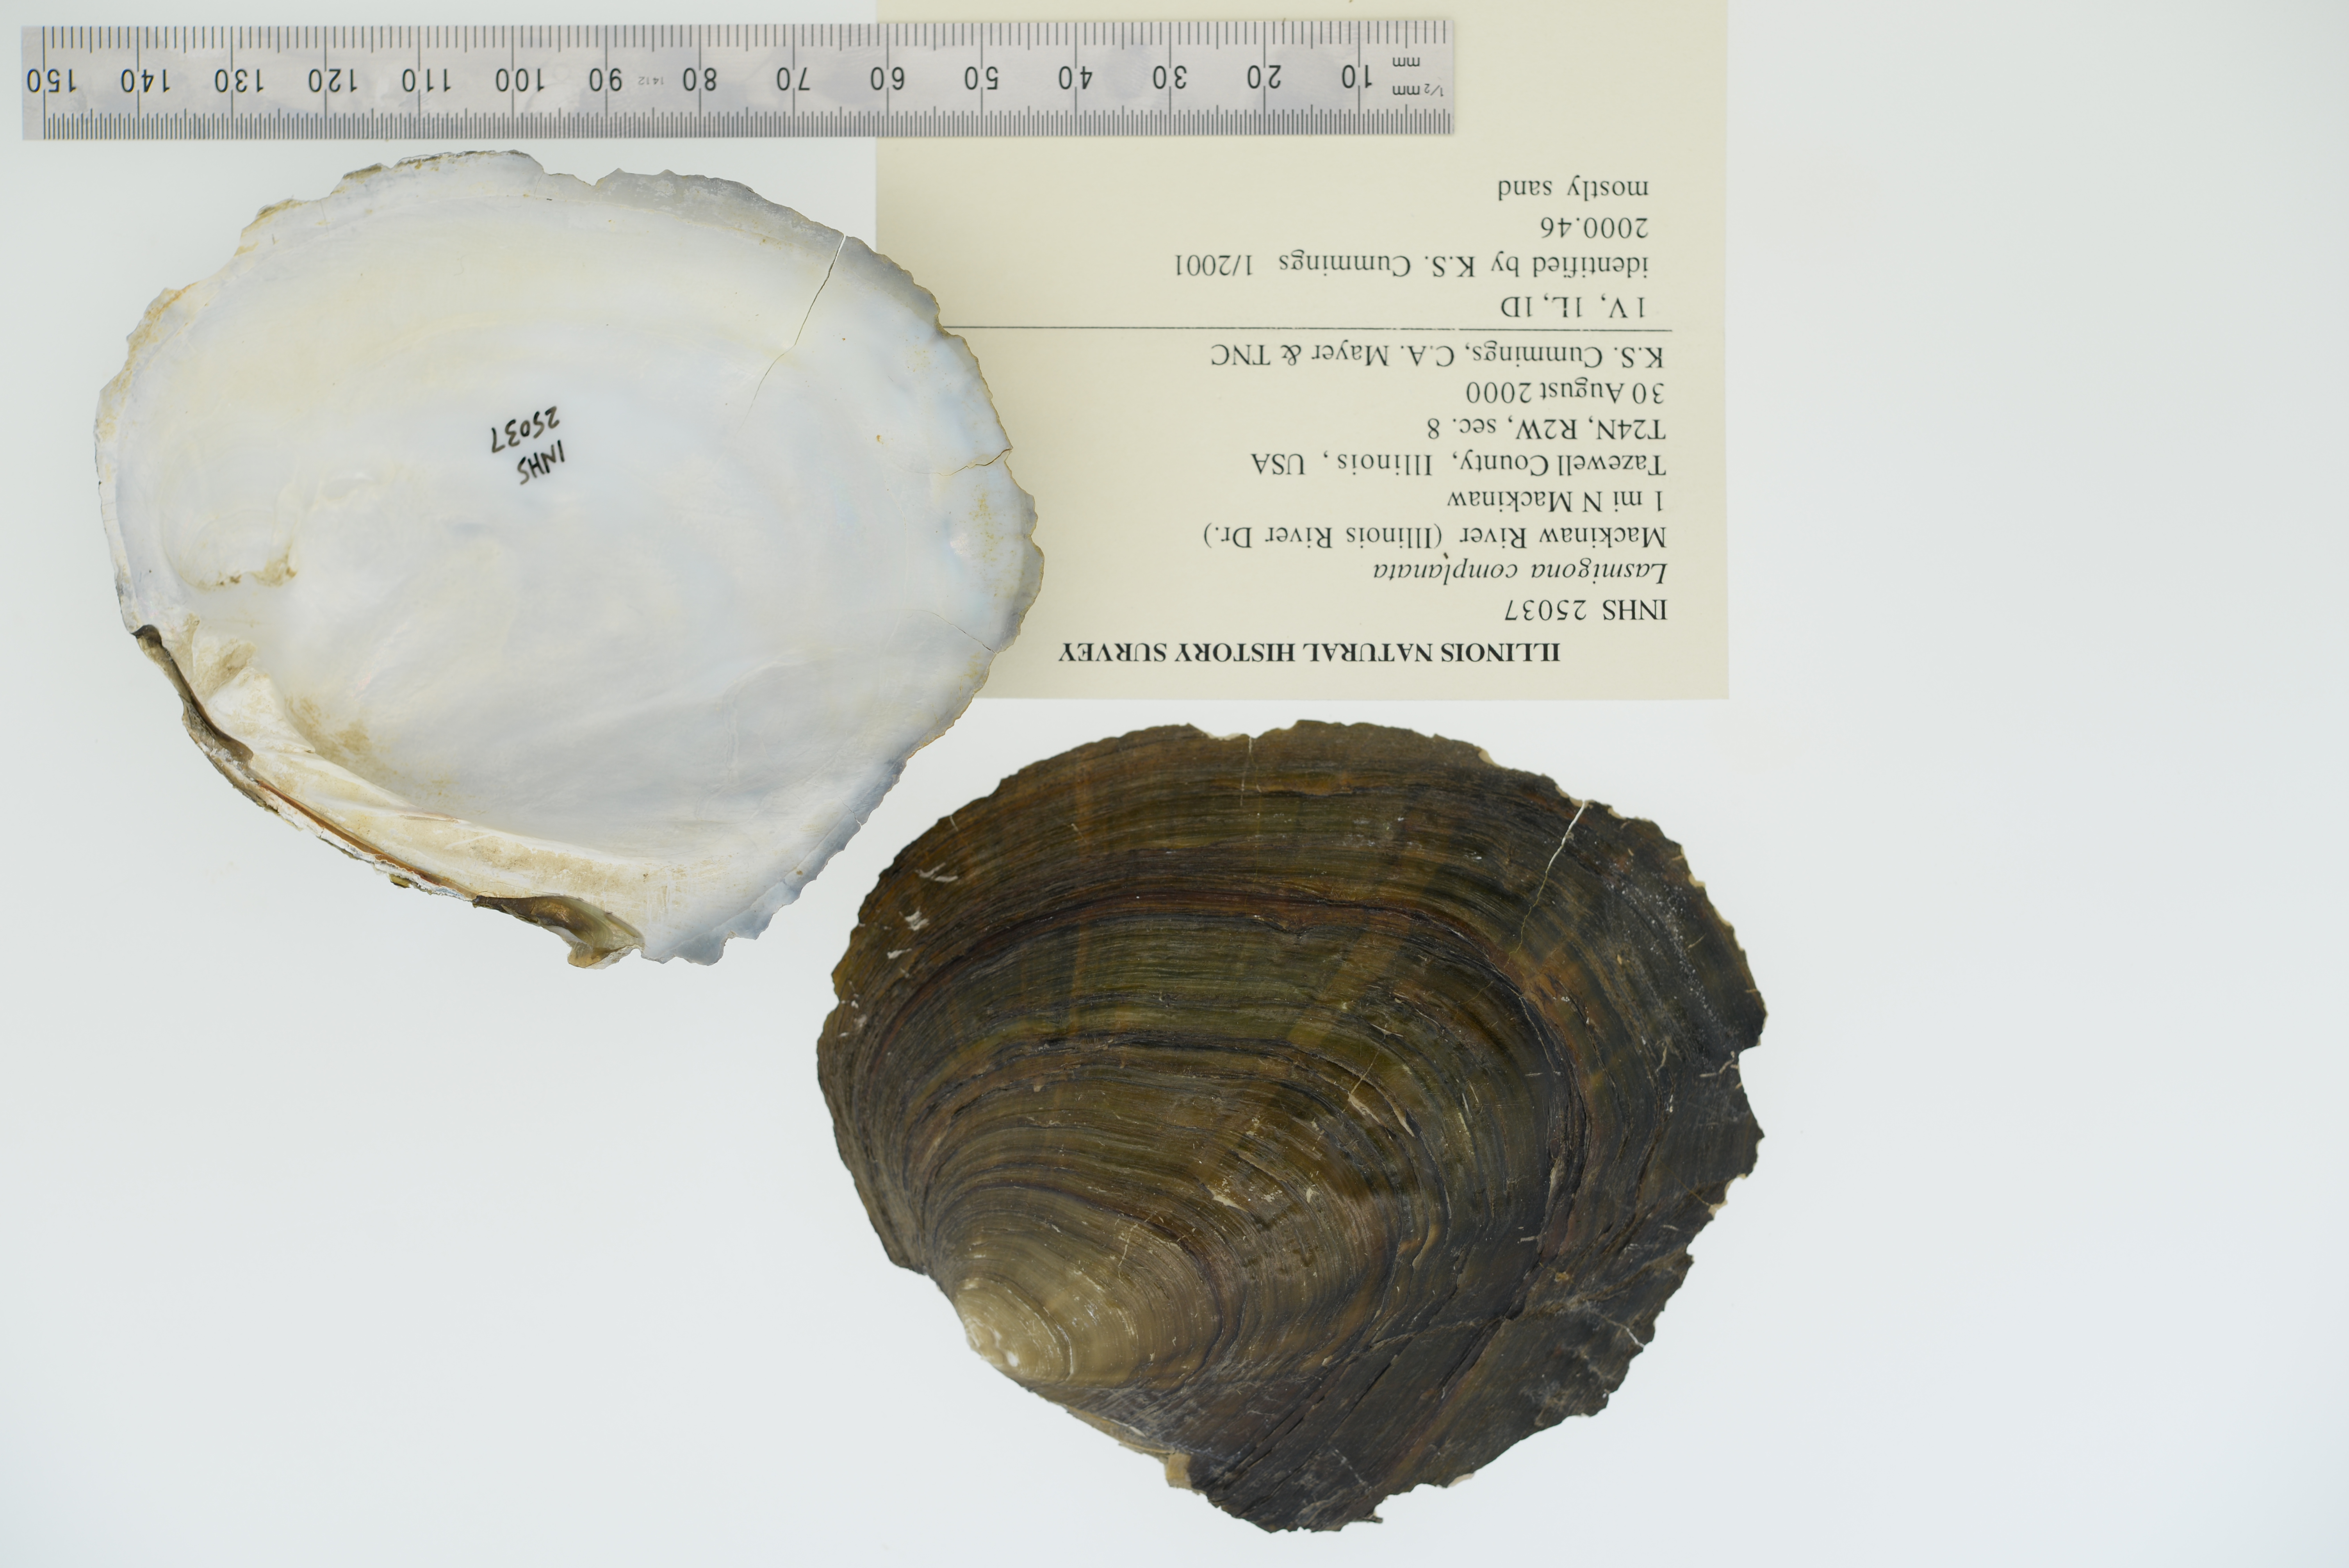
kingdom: Animalia
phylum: Mollusca
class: Bivalvia
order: Unionida
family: Unionidae
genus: Lasmigona
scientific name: Lasmigona complanata
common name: White heelsplitter
